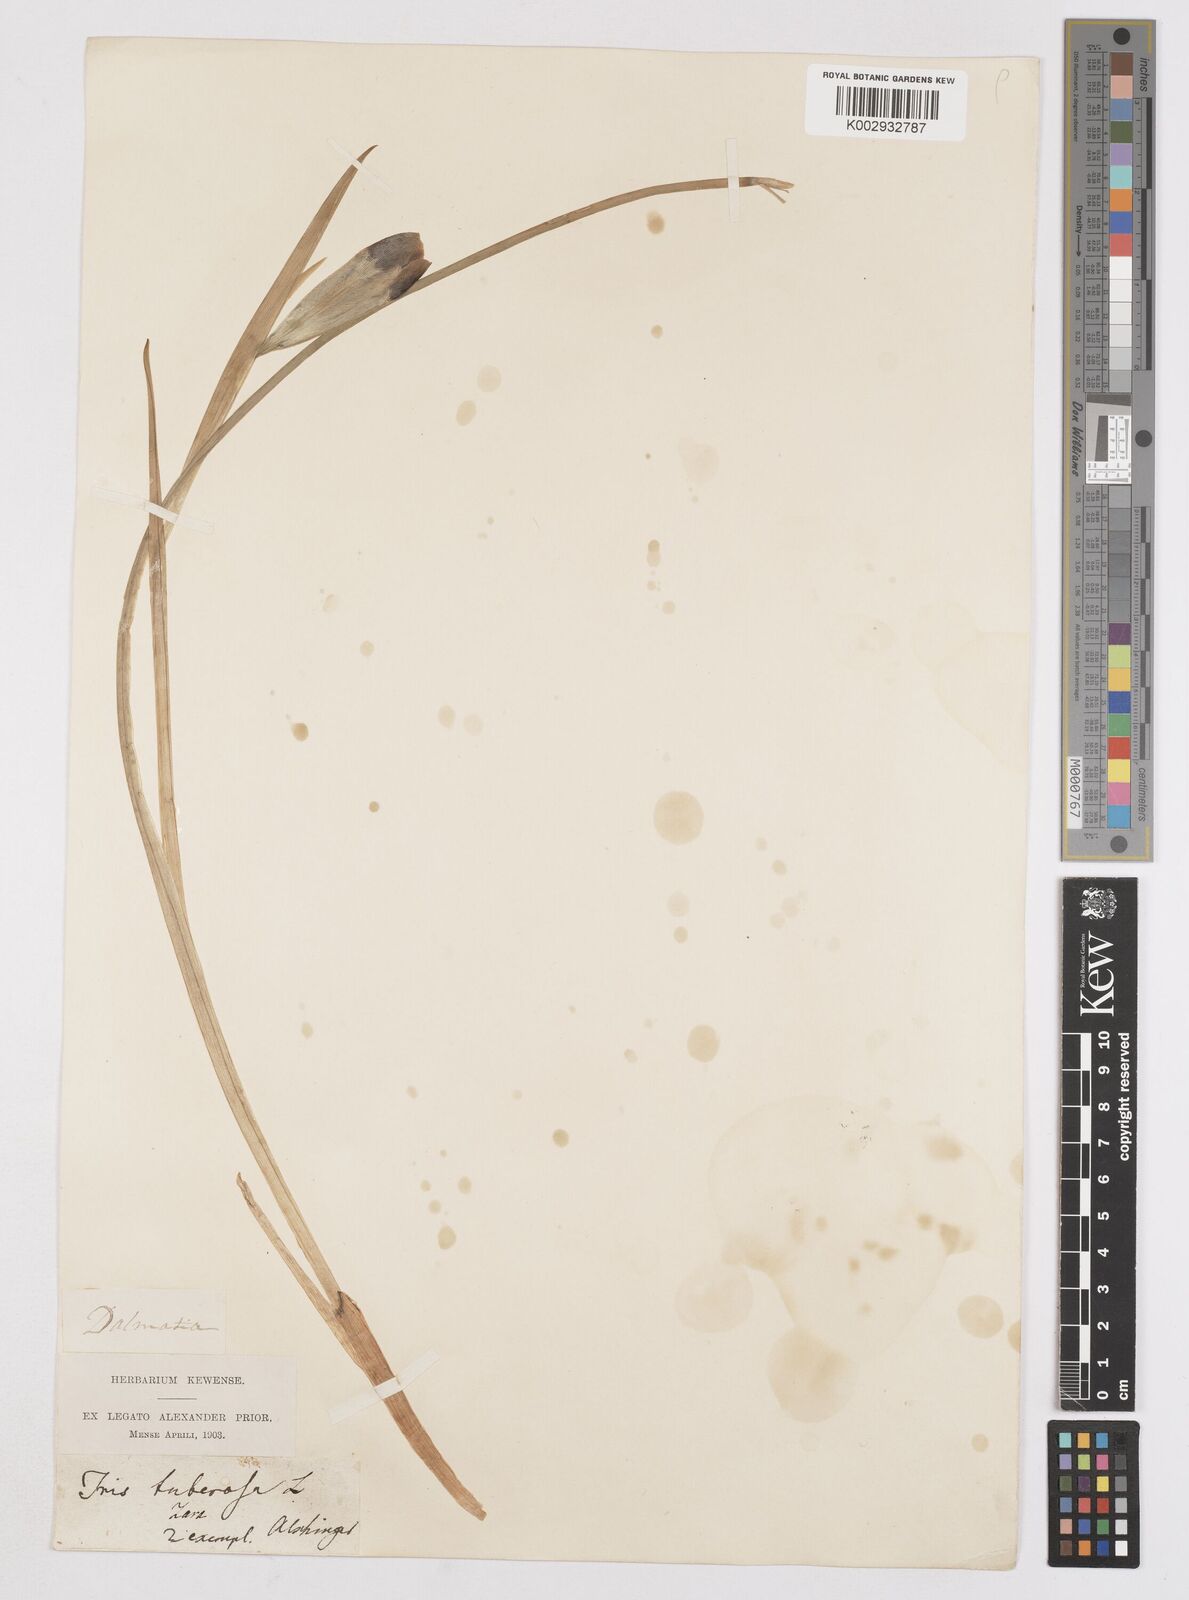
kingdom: Plantae
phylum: Tracheophyta
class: Liliopsida
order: Asparagales
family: Iridaceae
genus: Iris
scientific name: Iris tuberosa
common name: Snake's-head iris
